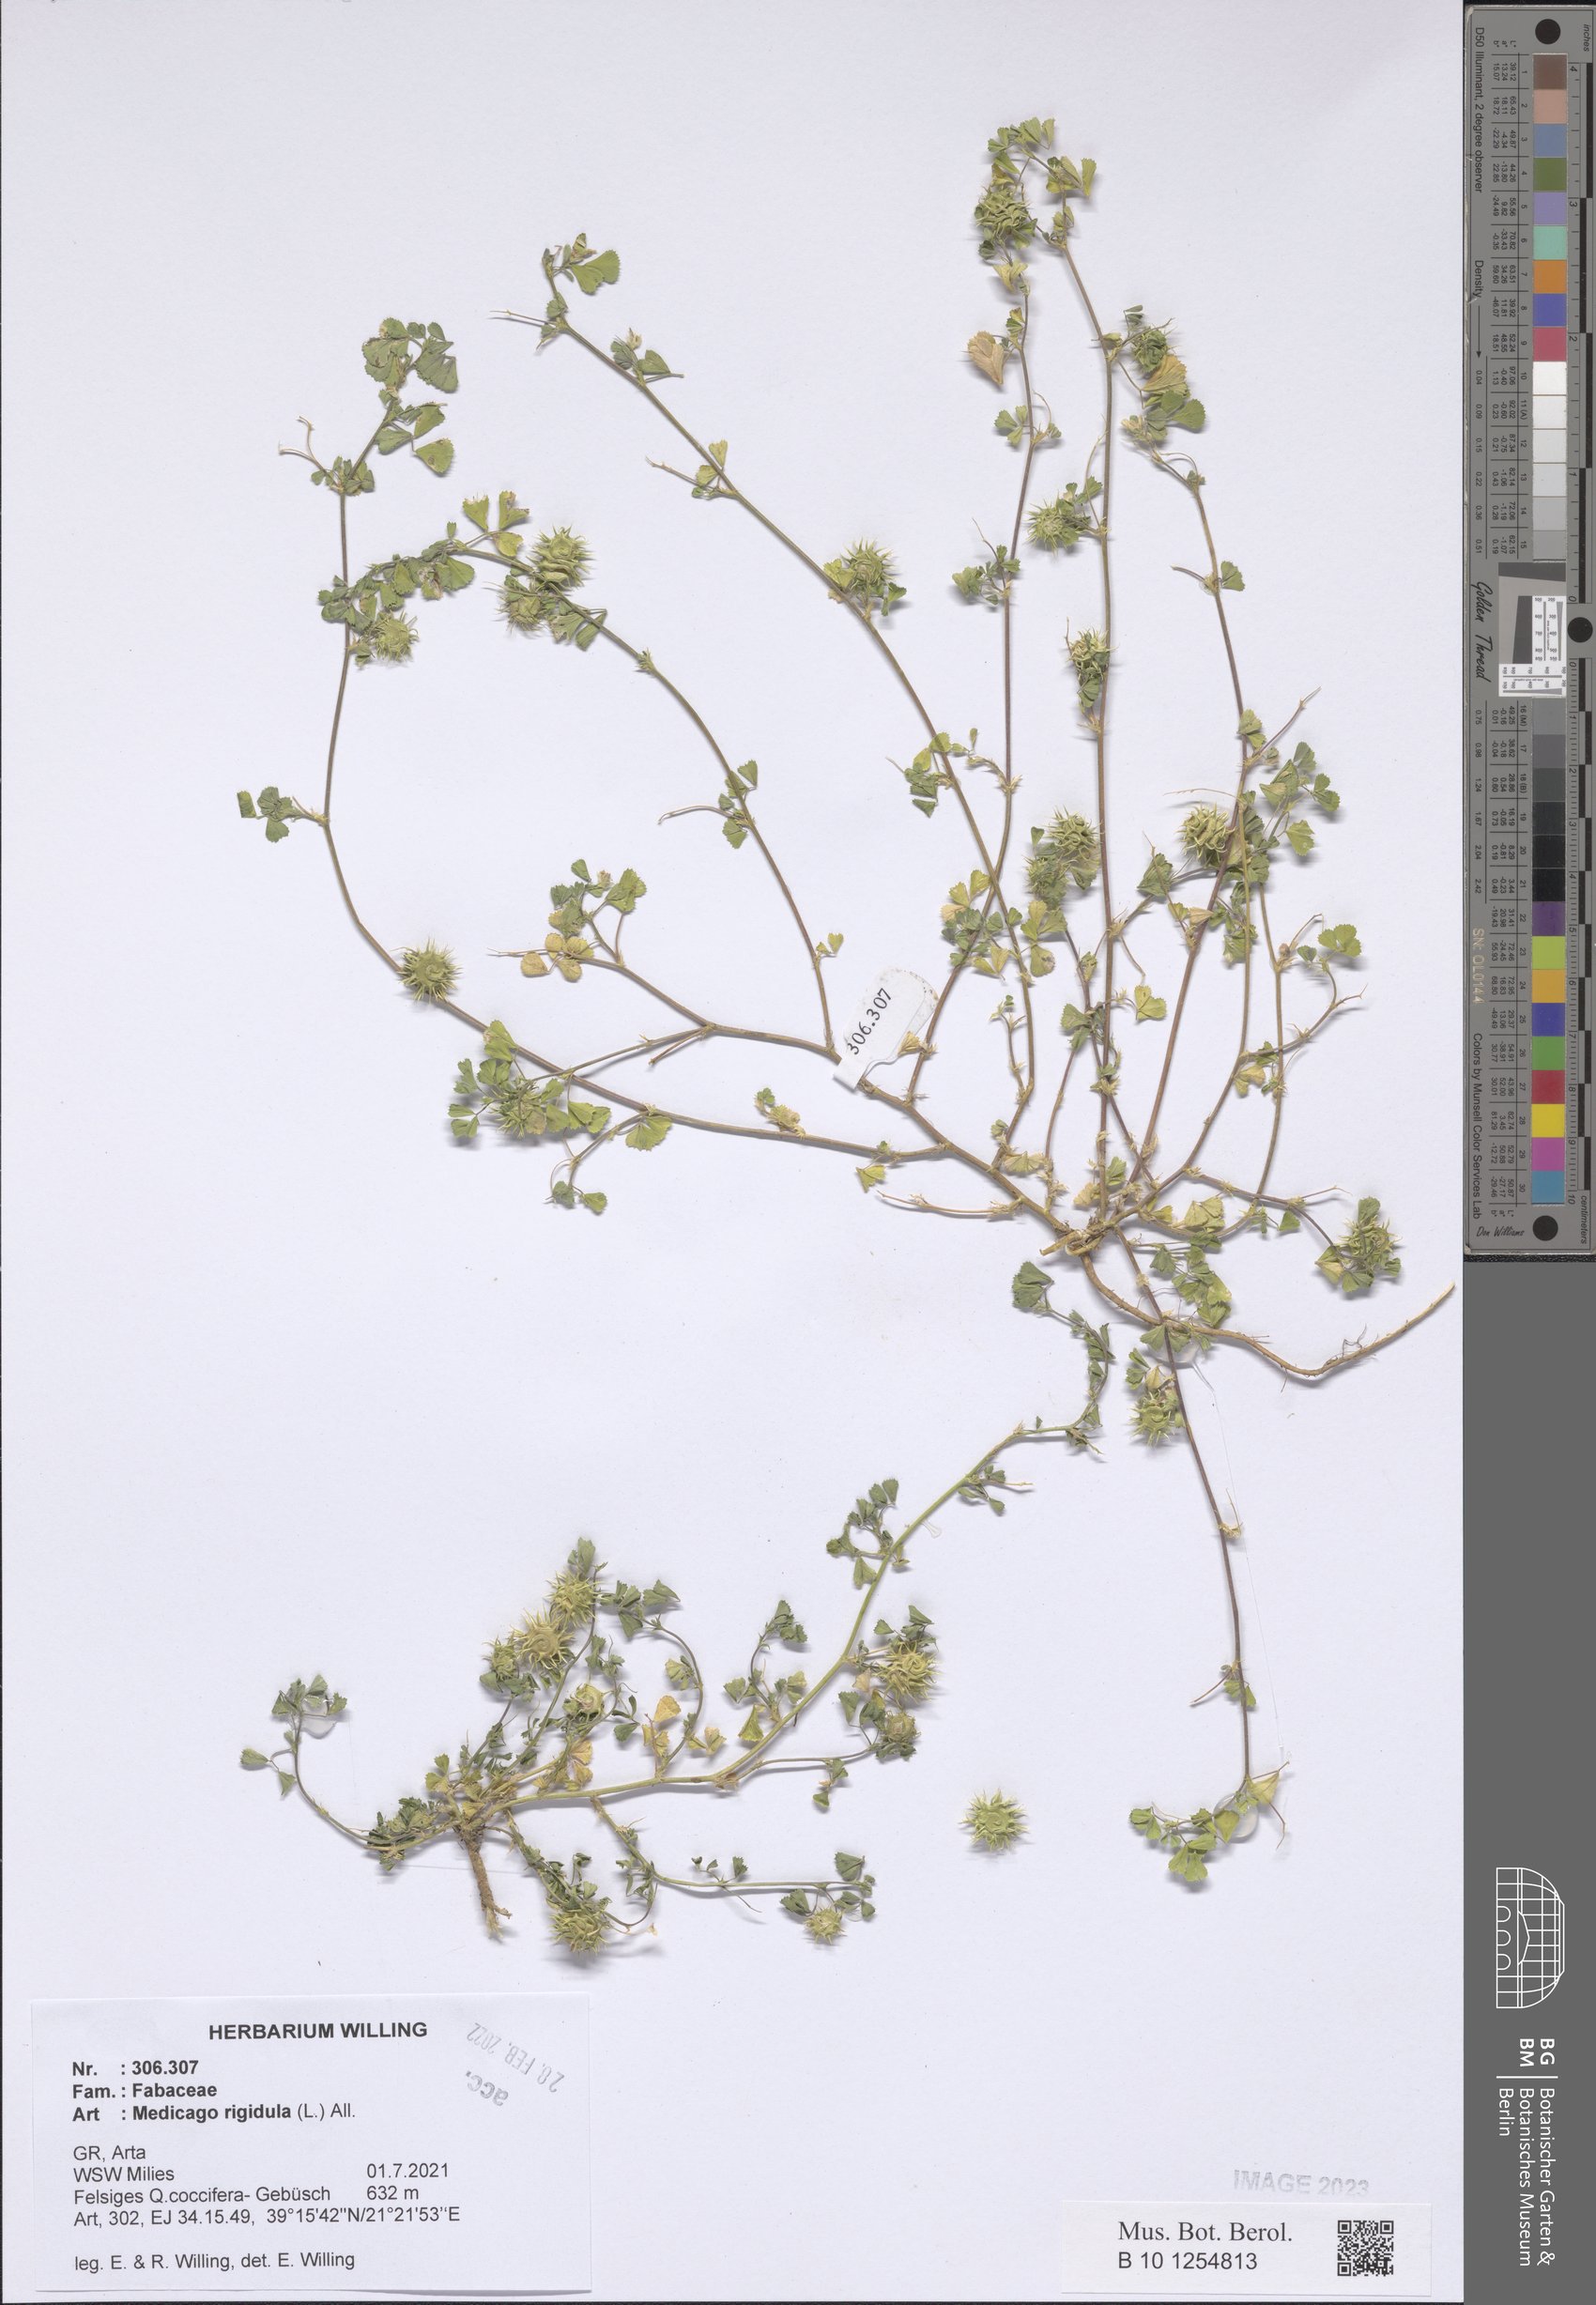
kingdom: Plantae
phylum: Tracheophyta
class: Magnoliopsida
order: Fabales
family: Fabaceae
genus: Medicago
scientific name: Medicago rigidula
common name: Tifton medic
